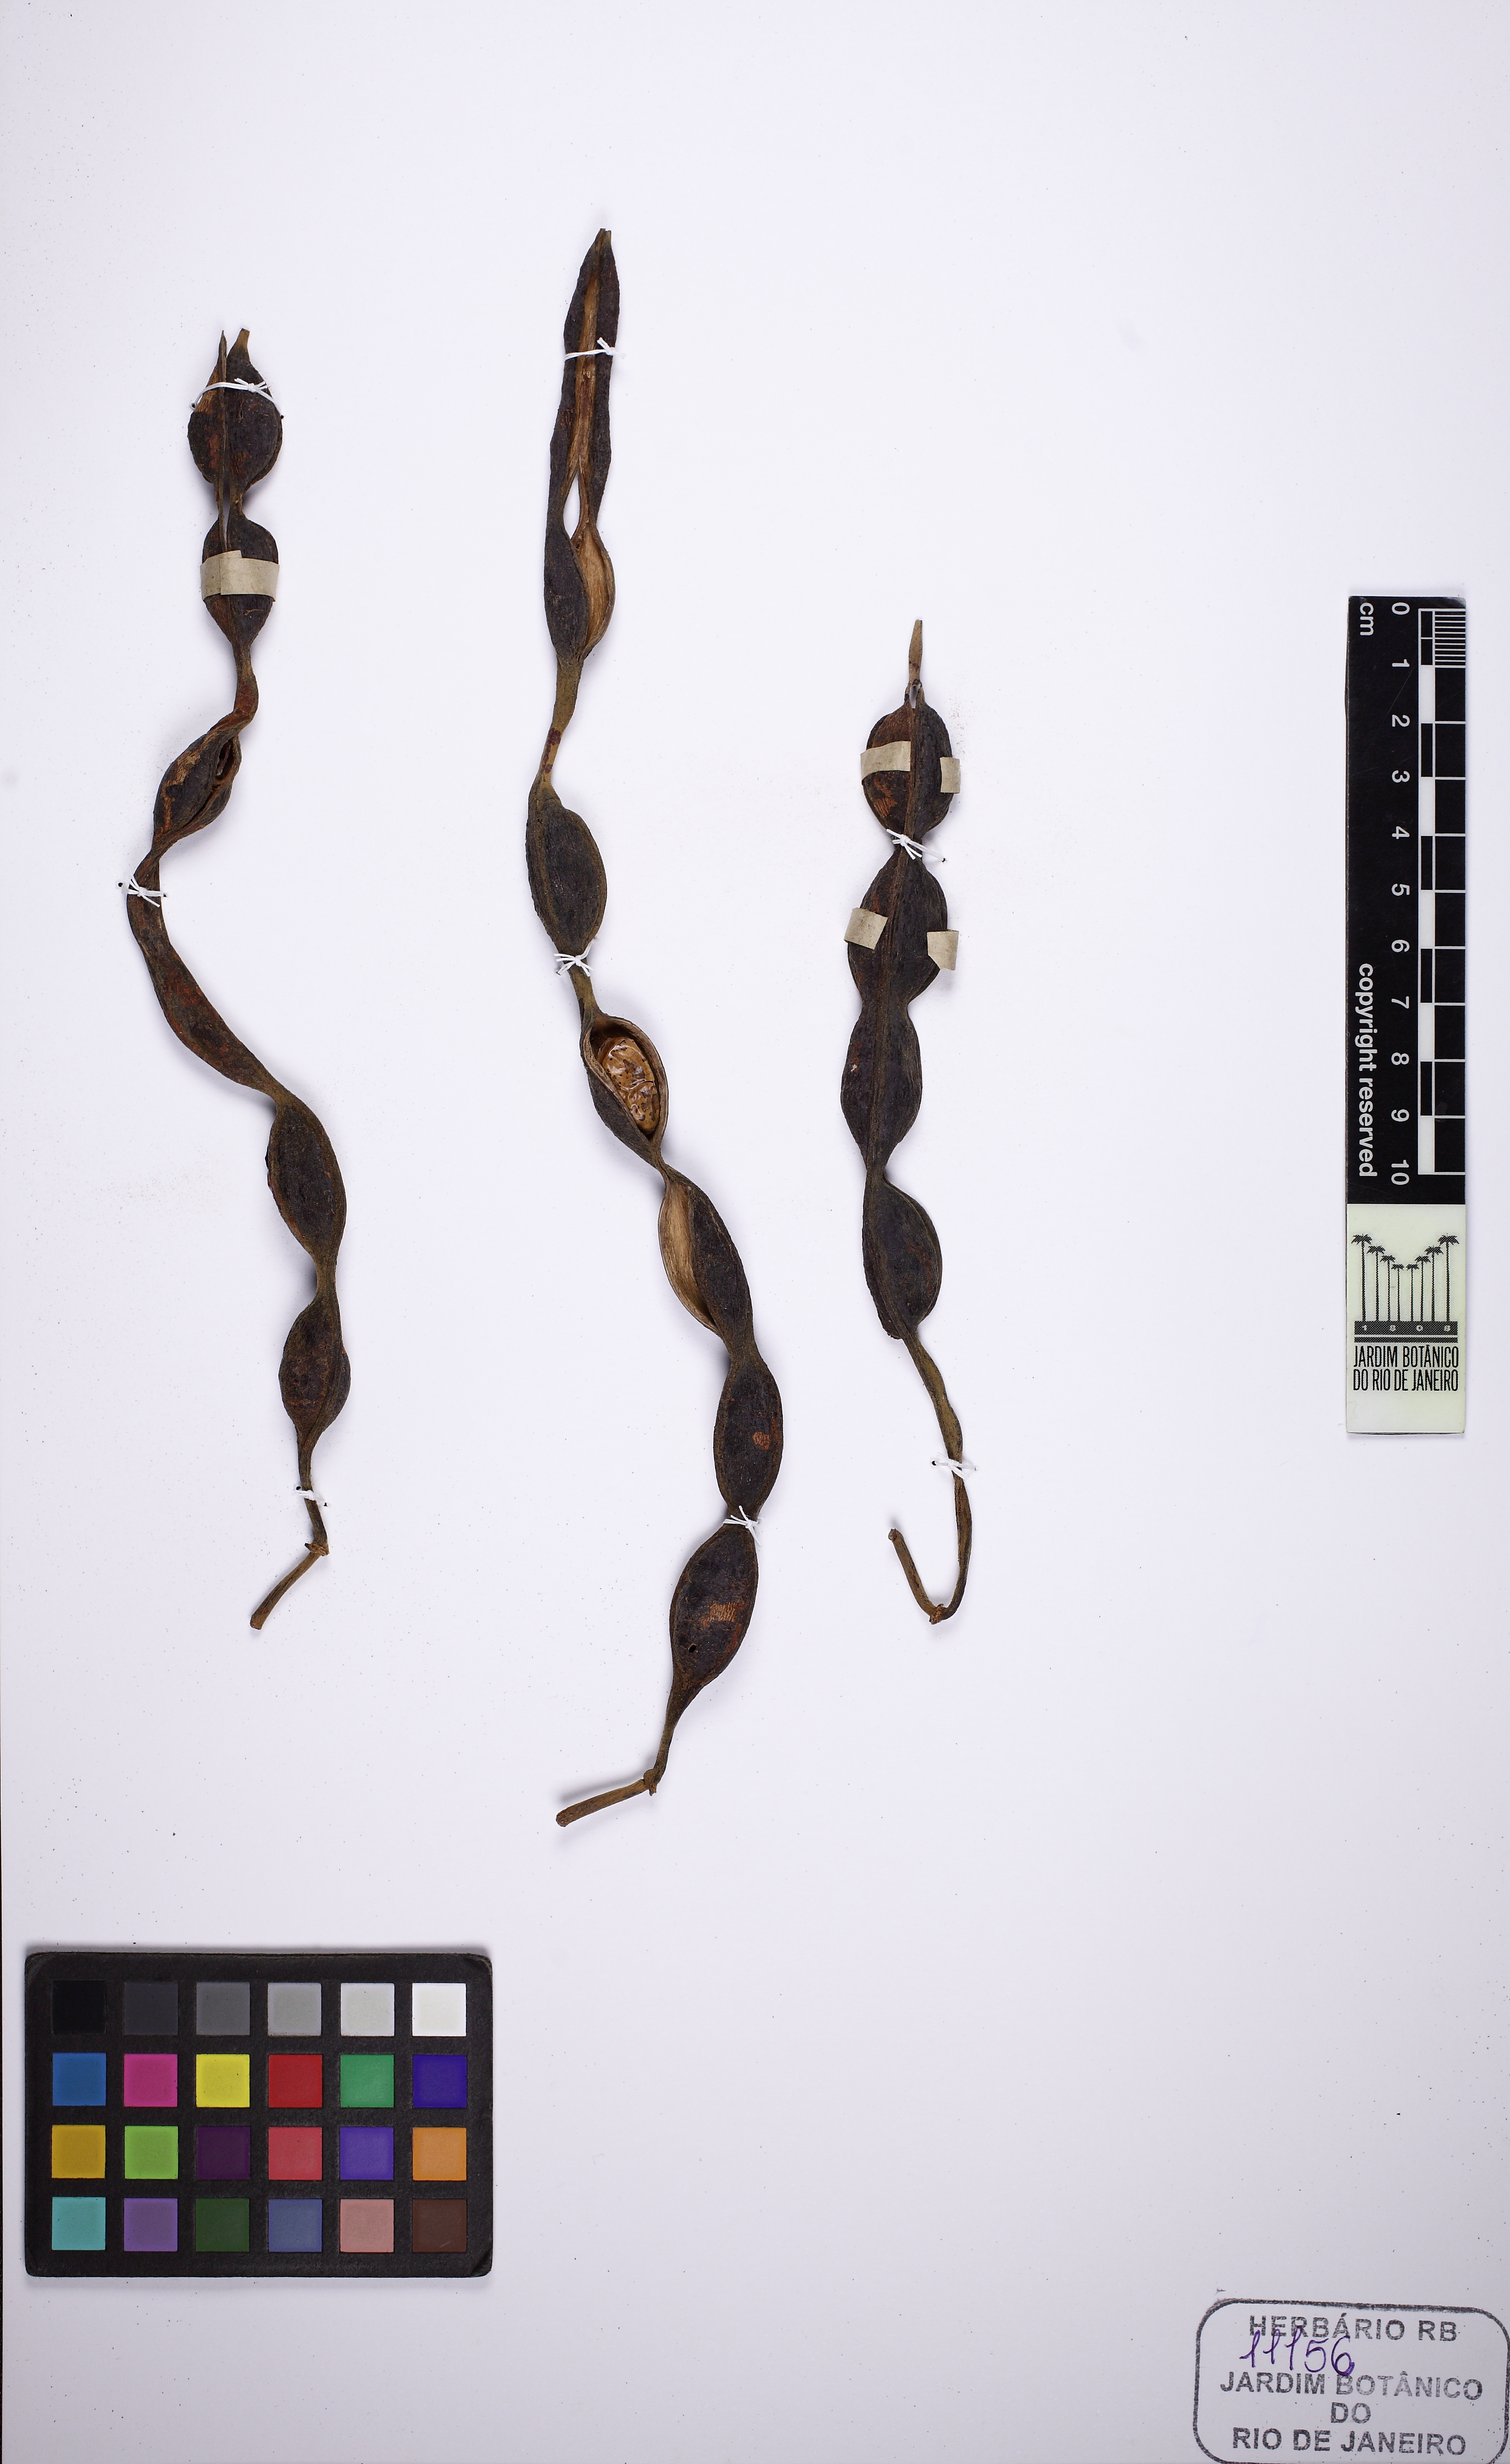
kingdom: Plantae
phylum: Tracheophyta
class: Magnoliopsida
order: Fabales
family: Fabaceae
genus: Swartzia
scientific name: Swartzia obscura
